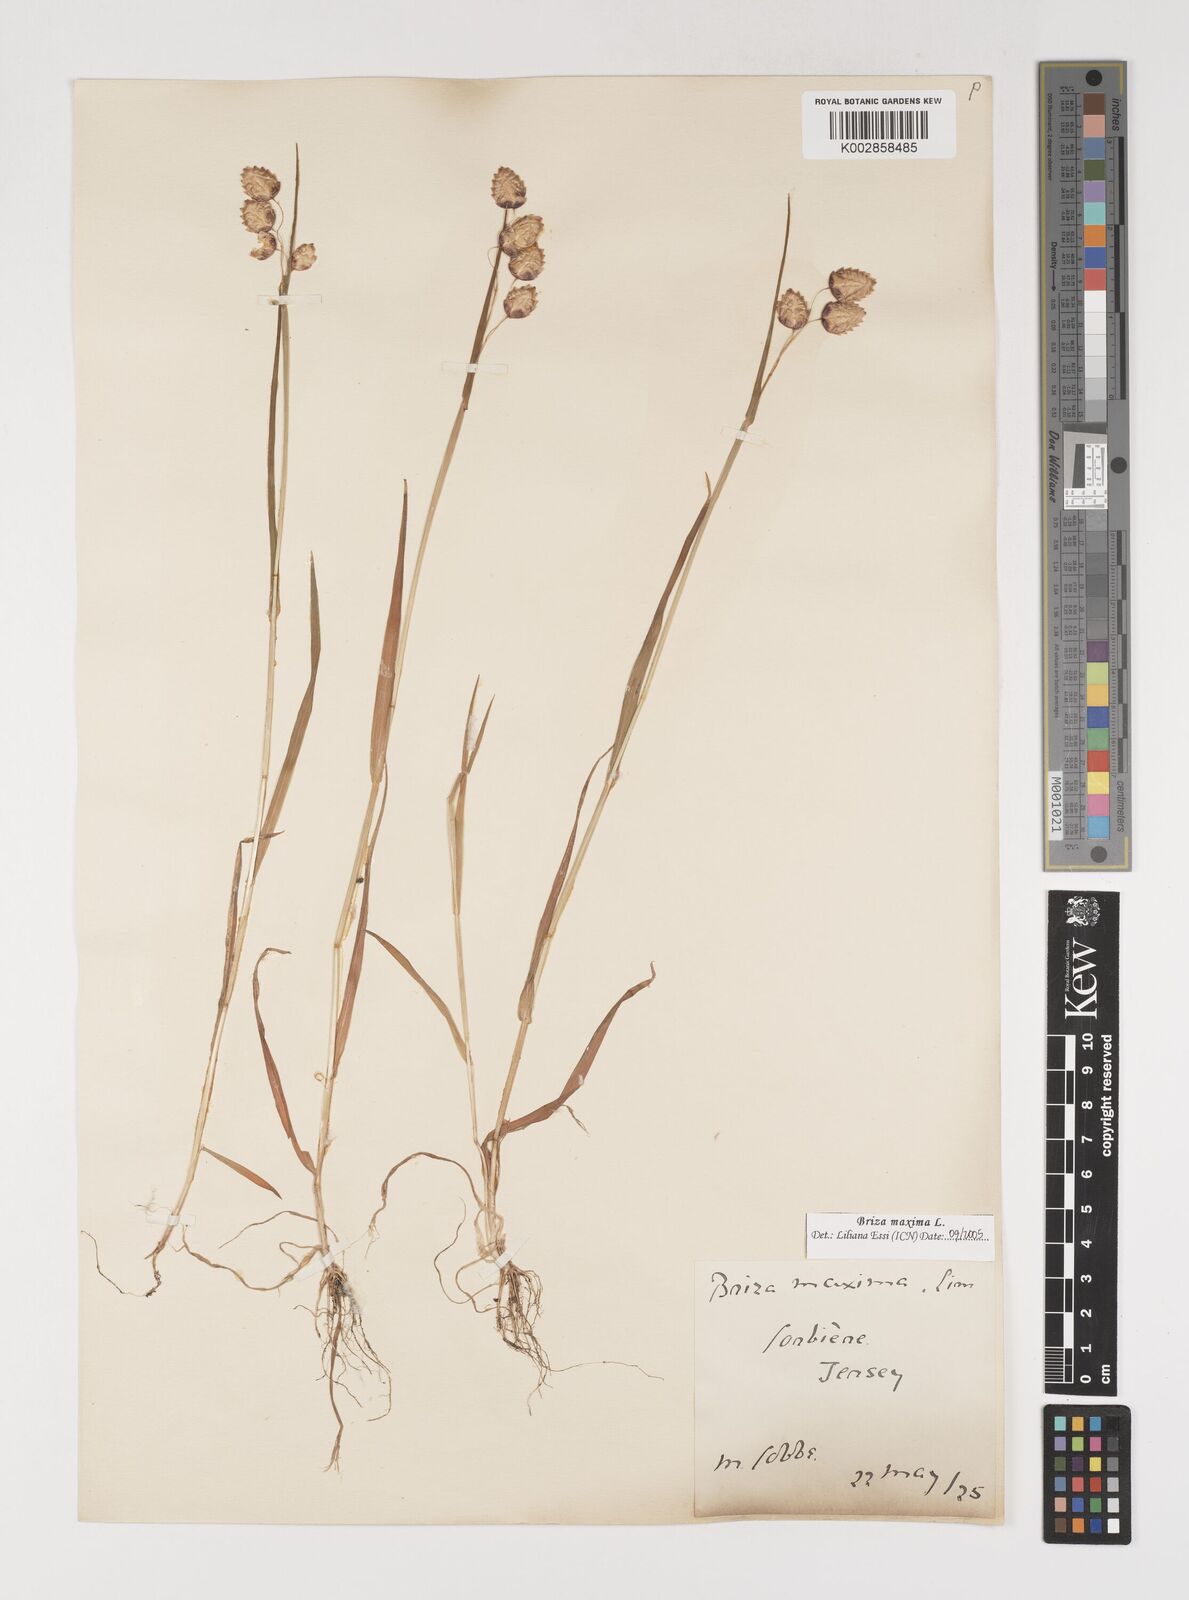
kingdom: Plantae
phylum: Tracheophyta
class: Liliopsida
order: Poales
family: Poaceae
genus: Briza
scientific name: Briza maxima
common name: Big quakinggrass
